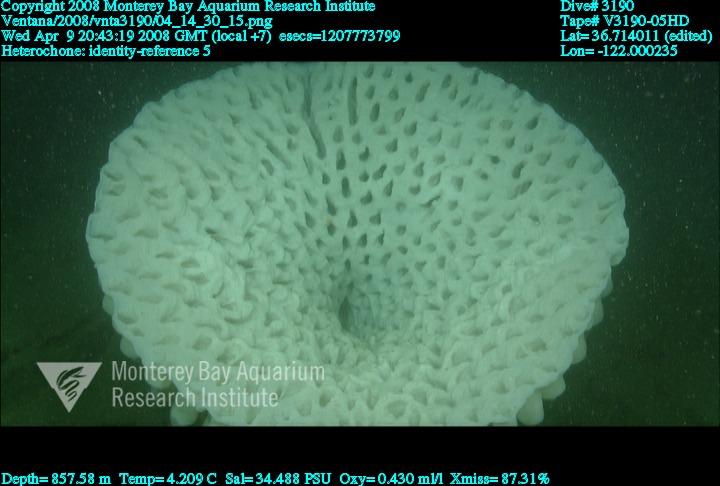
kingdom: Animalia
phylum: Porifera
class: Hexactinellida
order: Sceptrulophora
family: Aphrocallistidae
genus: Heterochone
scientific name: Heterochone
